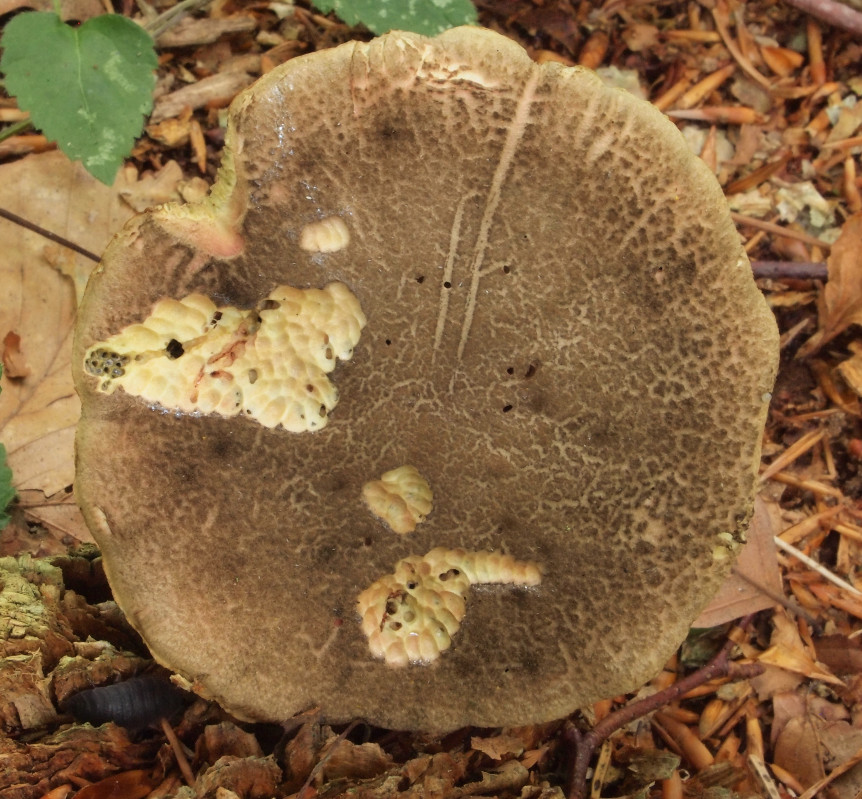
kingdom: Fungi
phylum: Basidiomycota
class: Agaricomycetes
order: Boletales
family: Boletaceae
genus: Xerocomellus
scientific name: Xerocomellus chrysenteron
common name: rødsprukken rørhat
